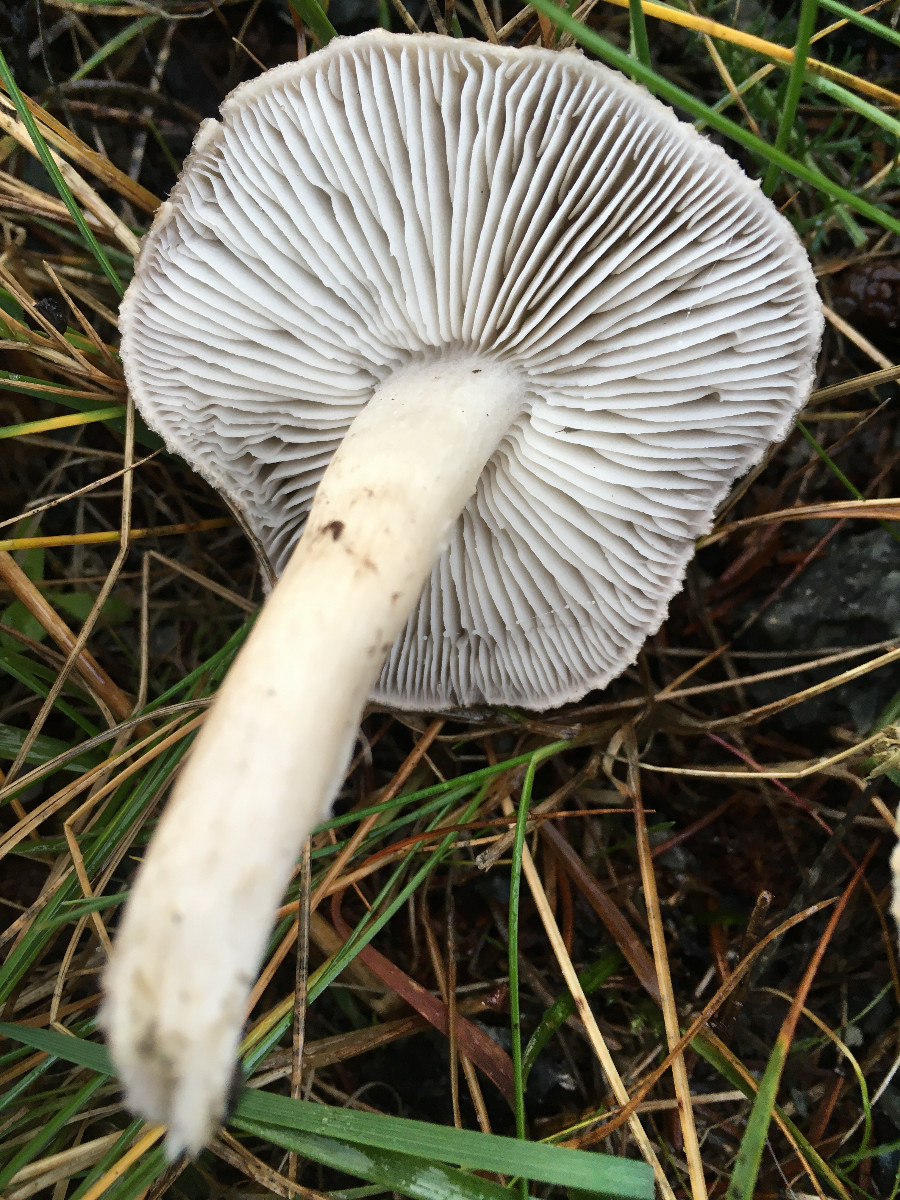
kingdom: Fungi
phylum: Basidiomycota
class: Agaricomycetes
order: Agaricales
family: Tricholomataceae
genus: Tricholoma
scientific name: Tricholoma argyraceum
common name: slør-ridderhat
